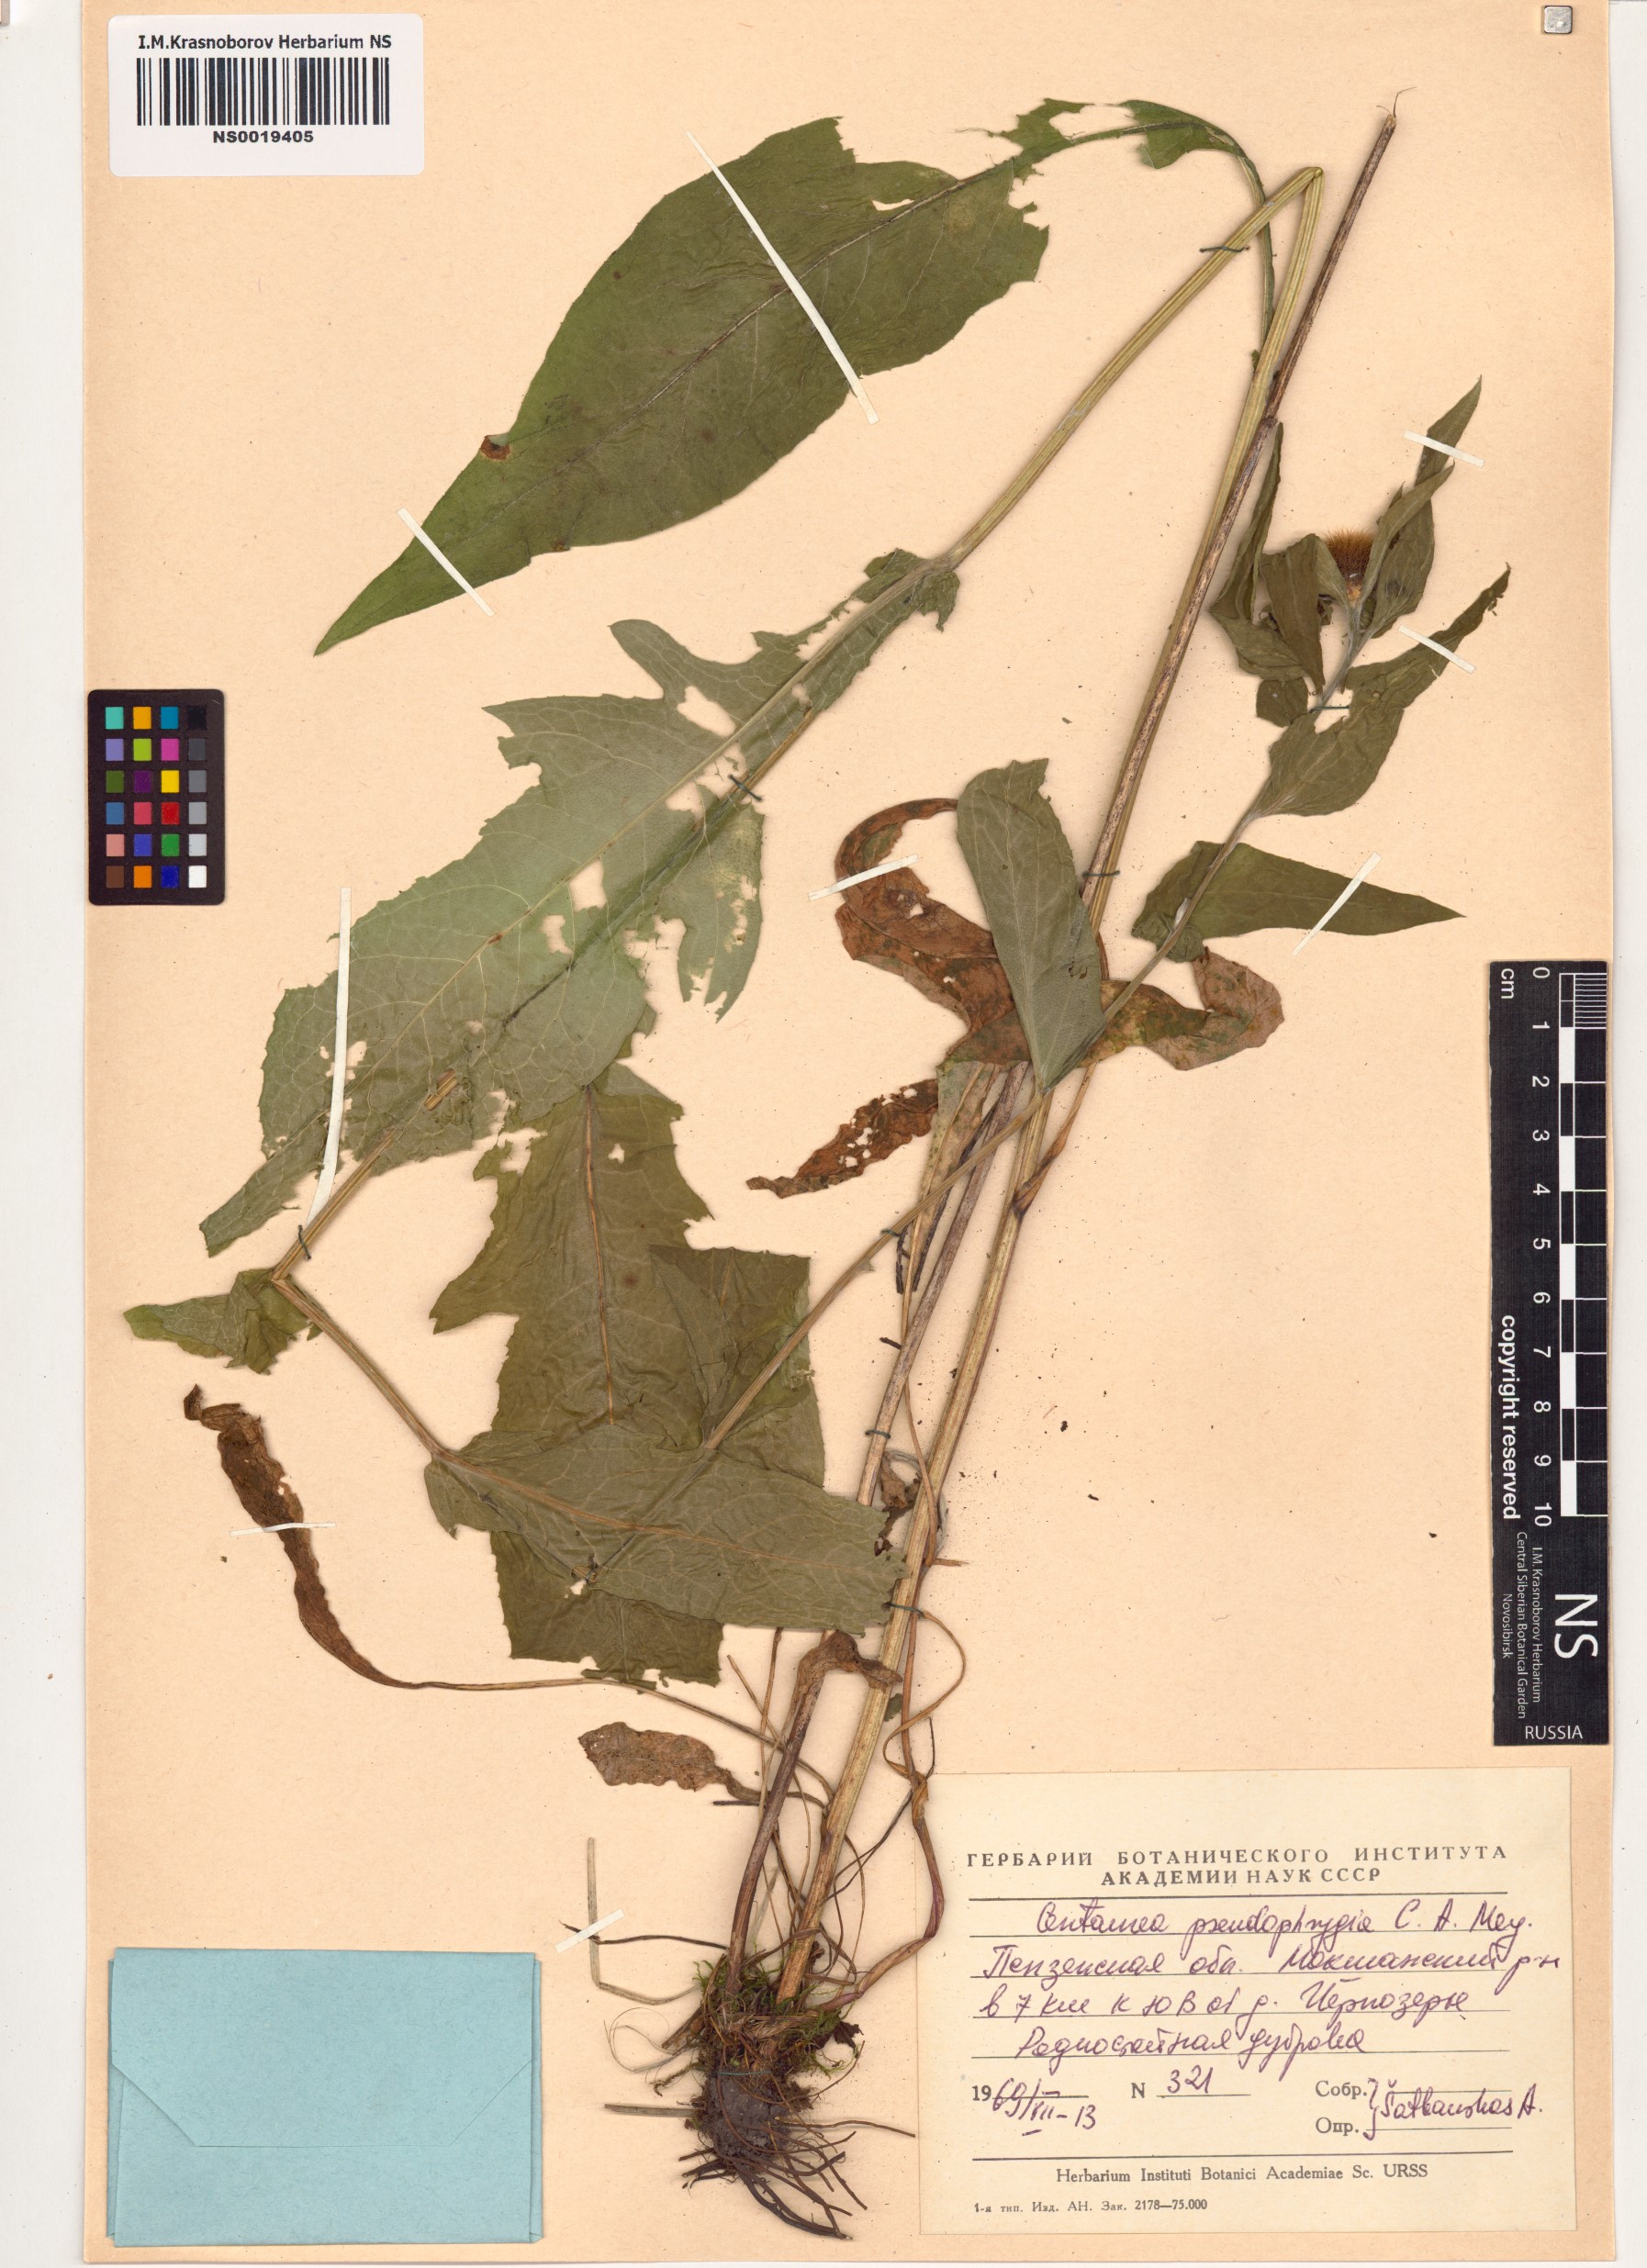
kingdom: Plantae
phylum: Tracheophyta
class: Magnoliopsida
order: Asterales
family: Asteraceae
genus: Centaurea
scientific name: Centaurea pseudophrygia
